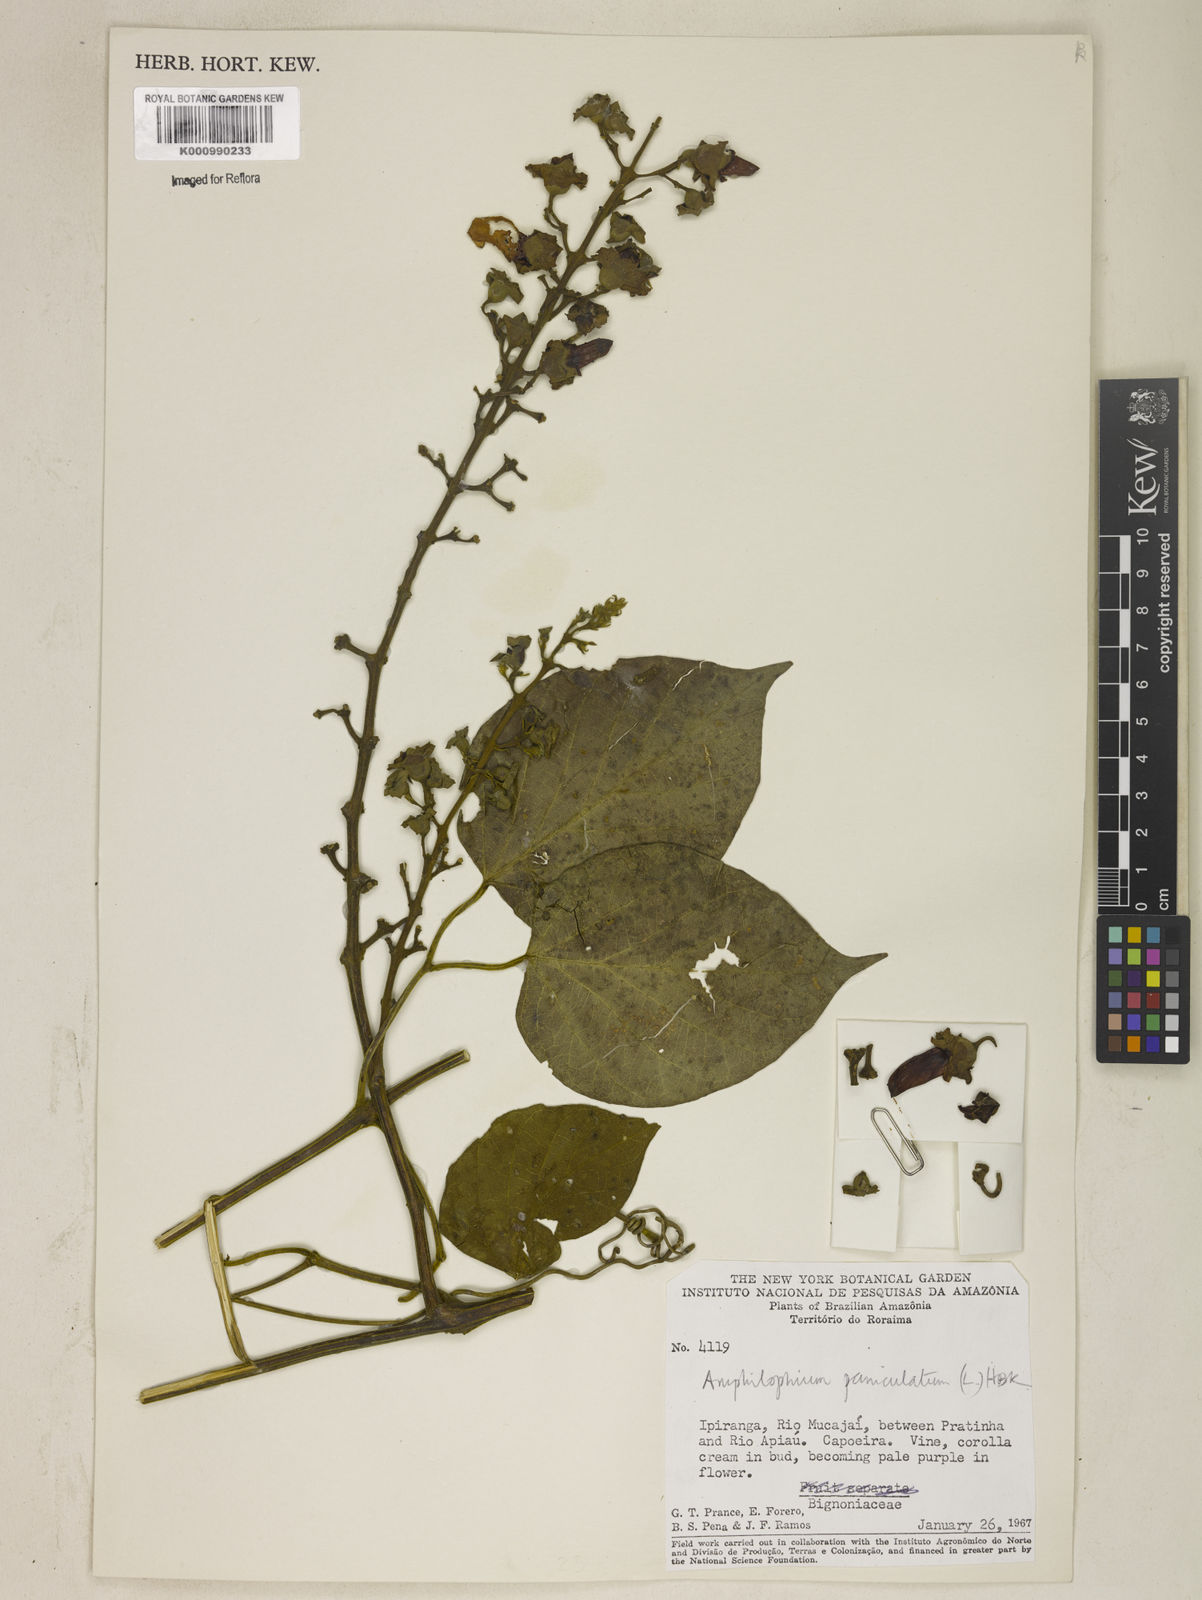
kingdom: Plantae
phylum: Tracheophyta
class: Magnoliopsida
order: Lamiales
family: Bignoniaceae
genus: Amphilophium
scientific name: Amphilophium paniculatum
